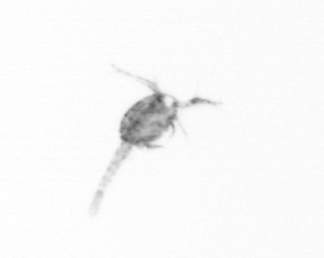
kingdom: Animalia
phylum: Arthropoda
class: Copepoda
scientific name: Copepoda
